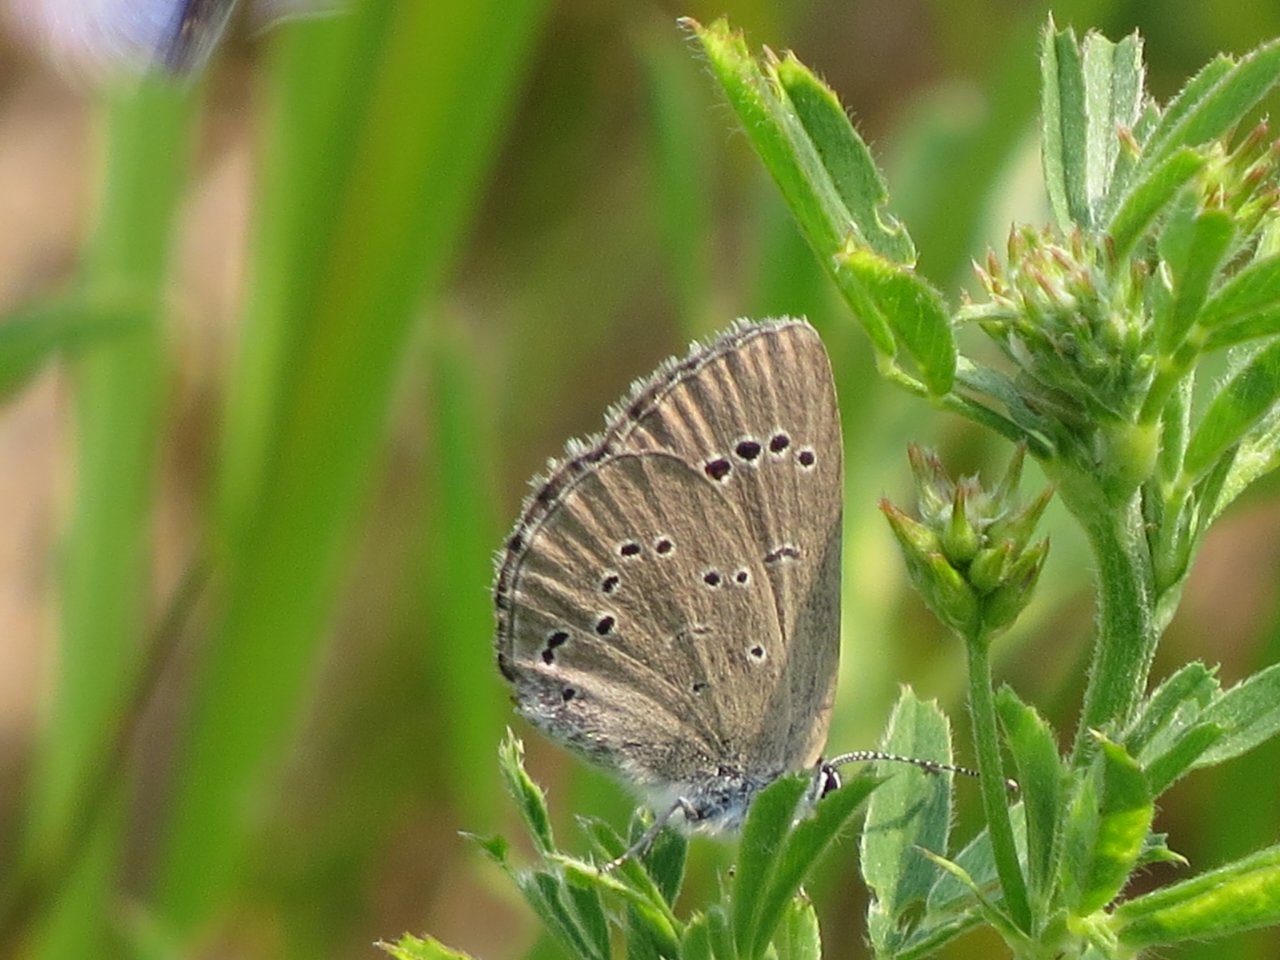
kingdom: Animalia
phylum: Arthropoda
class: Insecta
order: Lepidoptera
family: Lycaenidae
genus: Glaucopsyche
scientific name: Glaucopsyche lygdamus
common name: Silvery Blue
